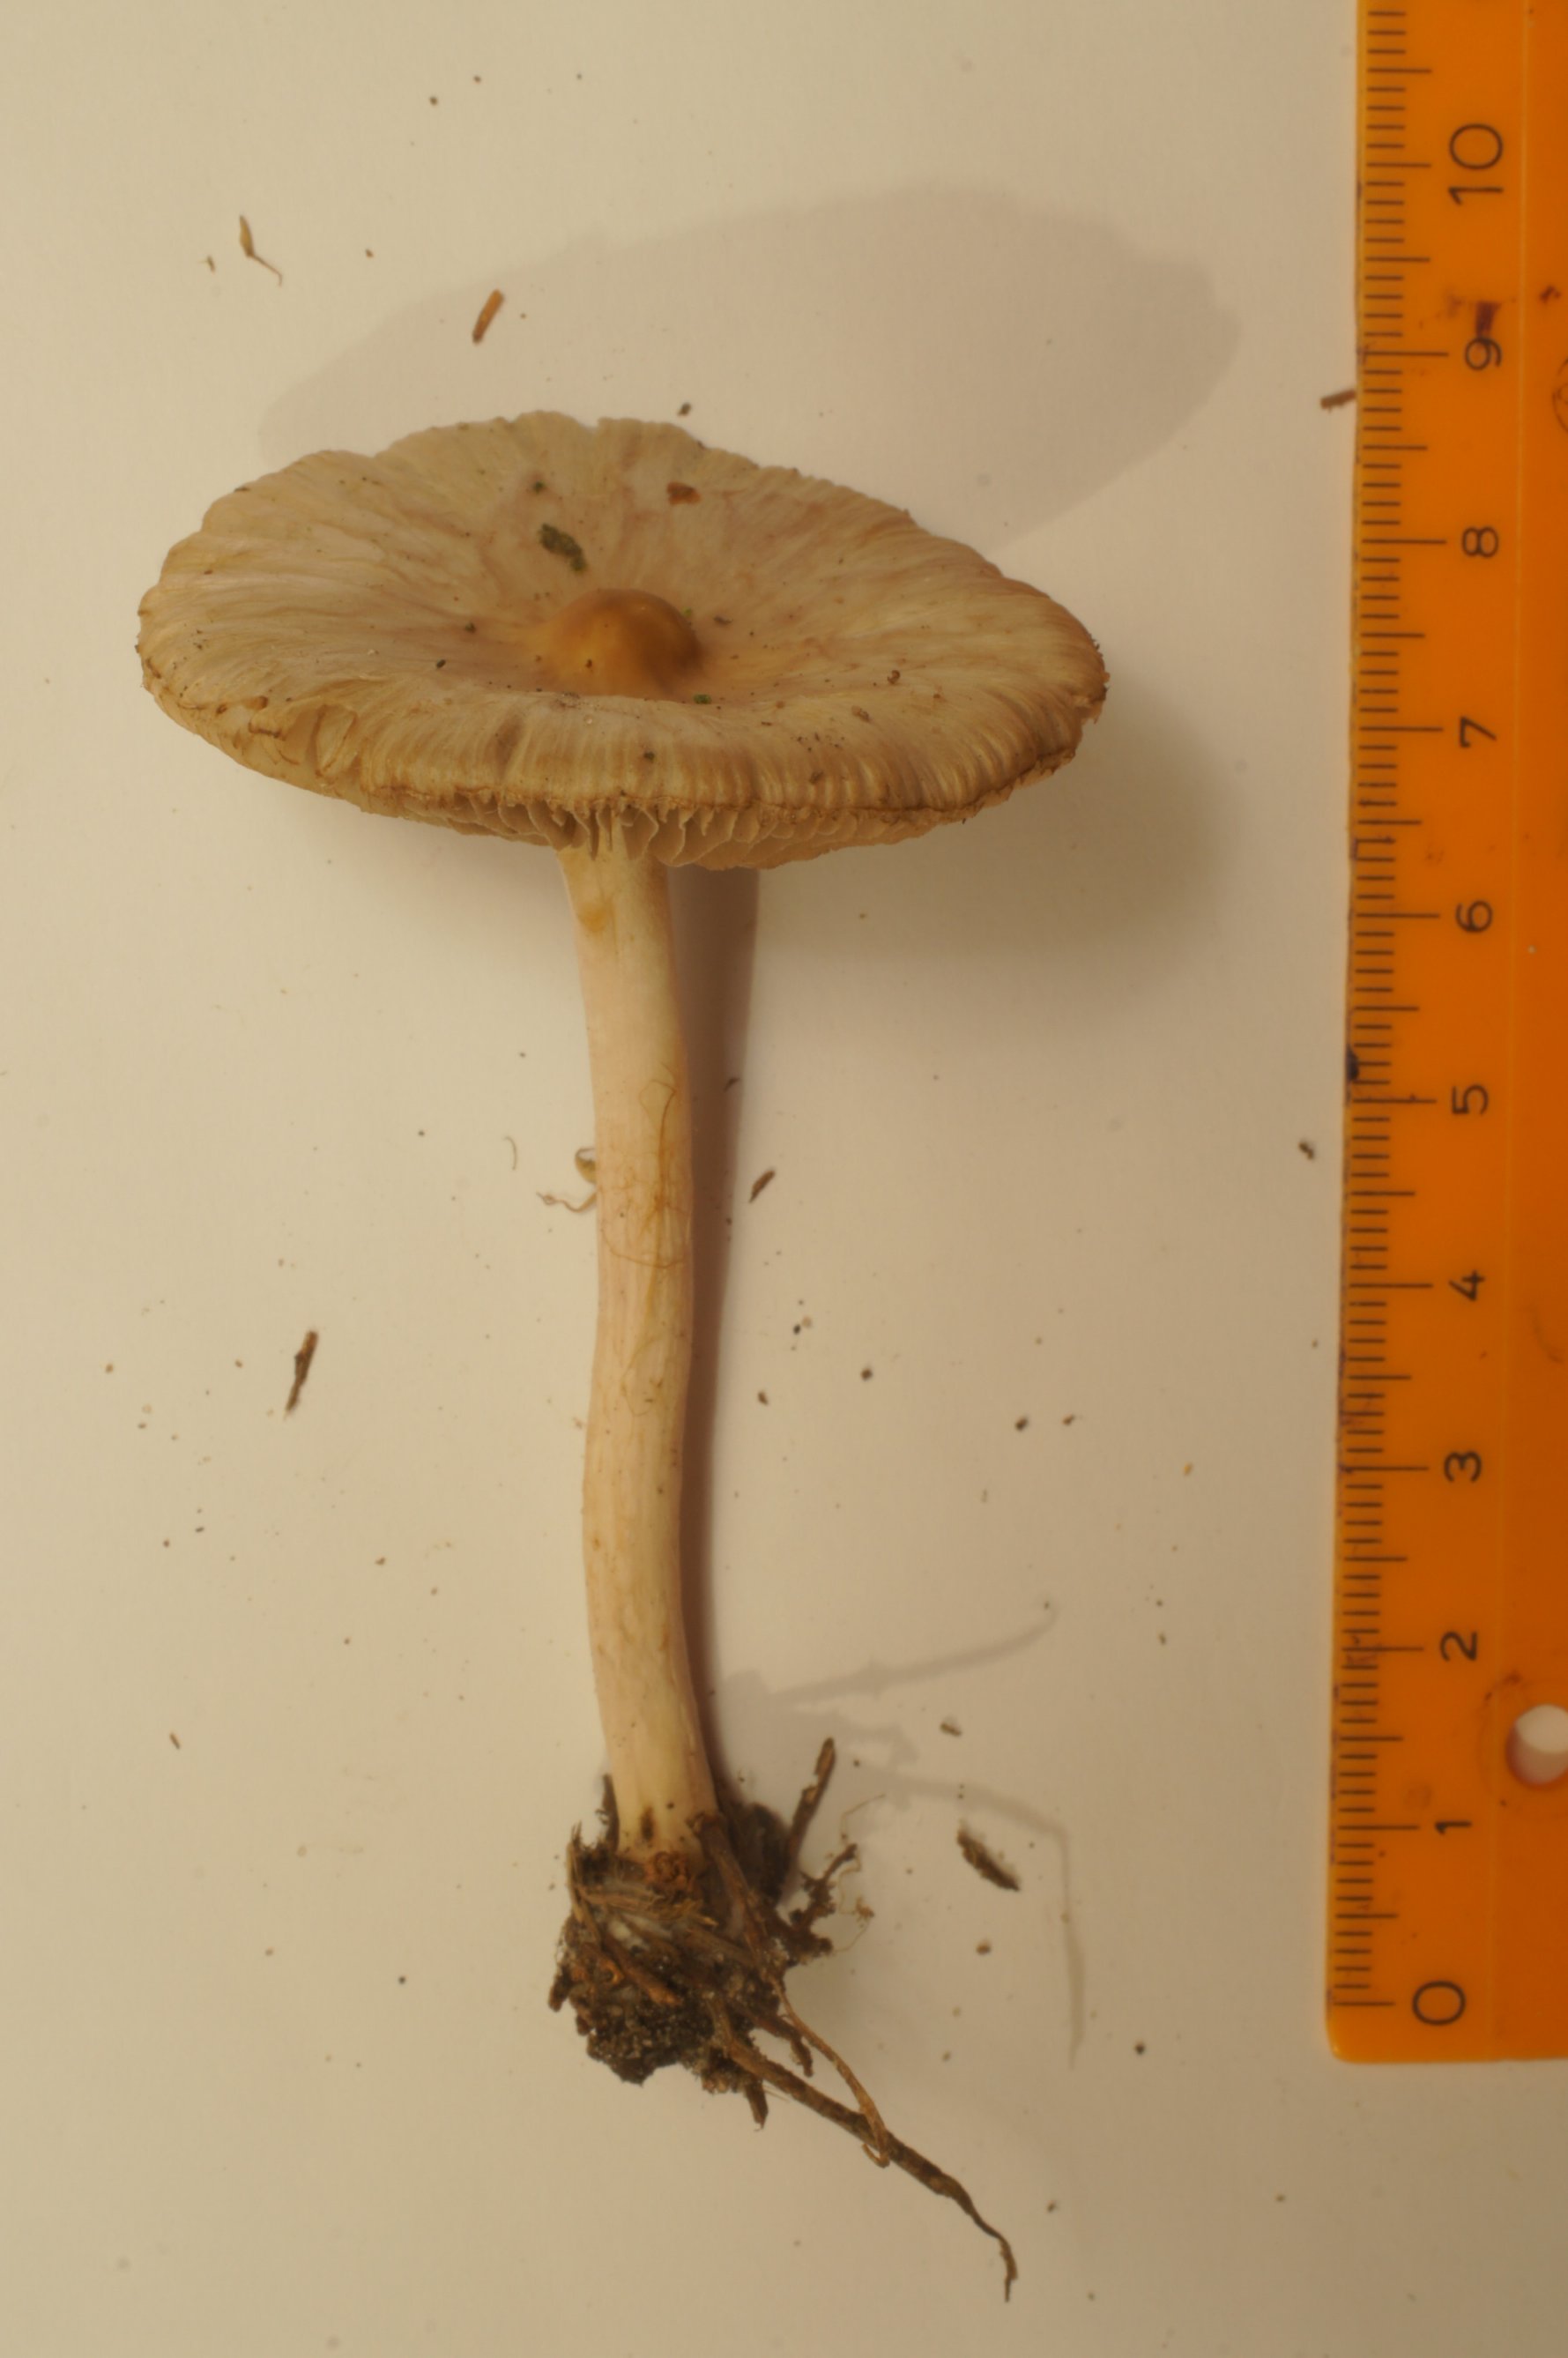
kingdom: Fungi
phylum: Basidiomycota
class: Agaricomycetes
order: Agaricales
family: Inocybaceae
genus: Inocybe
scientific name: Inocybe
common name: almindelig trævlhat
